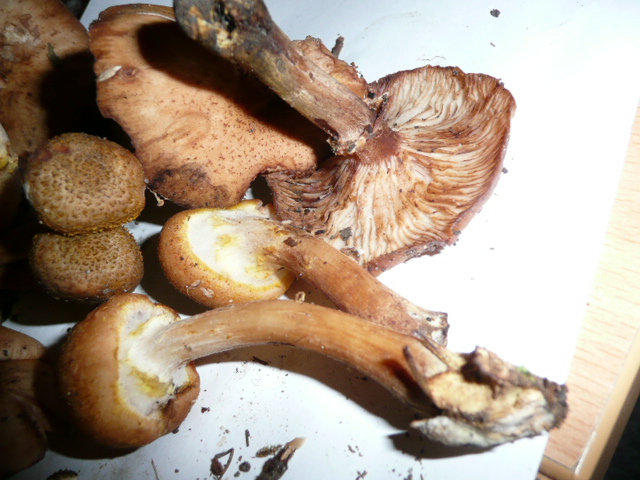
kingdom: Fungi
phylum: Basidiomycota
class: Agaricomycetes
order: Agaricales
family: Physalacriaceae
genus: Armillaria
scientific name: Armillaria lutea
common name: køllestokket honningsvamp
